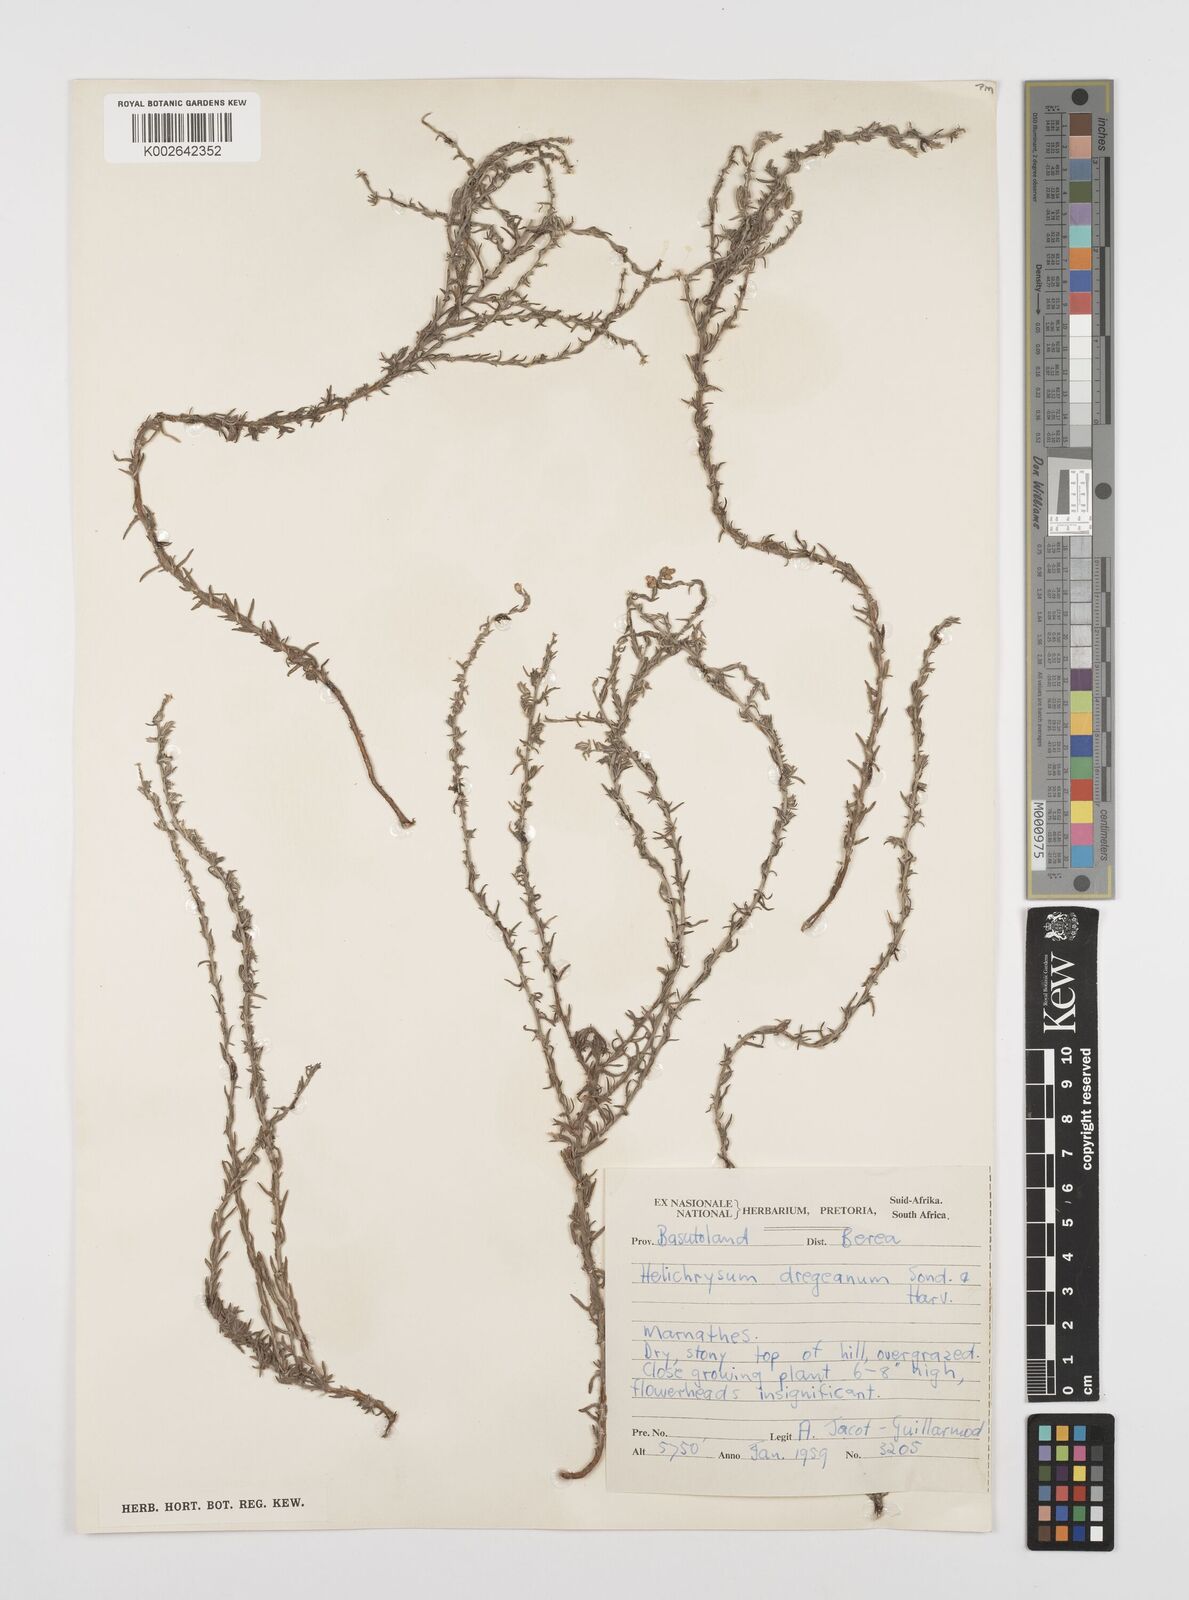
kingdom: Plantae
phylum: Tracheophyta
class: Magnoliopsida
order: Asterales
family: Asteraceae
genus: Helichrysum
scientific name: Helichrysum dregeanum
